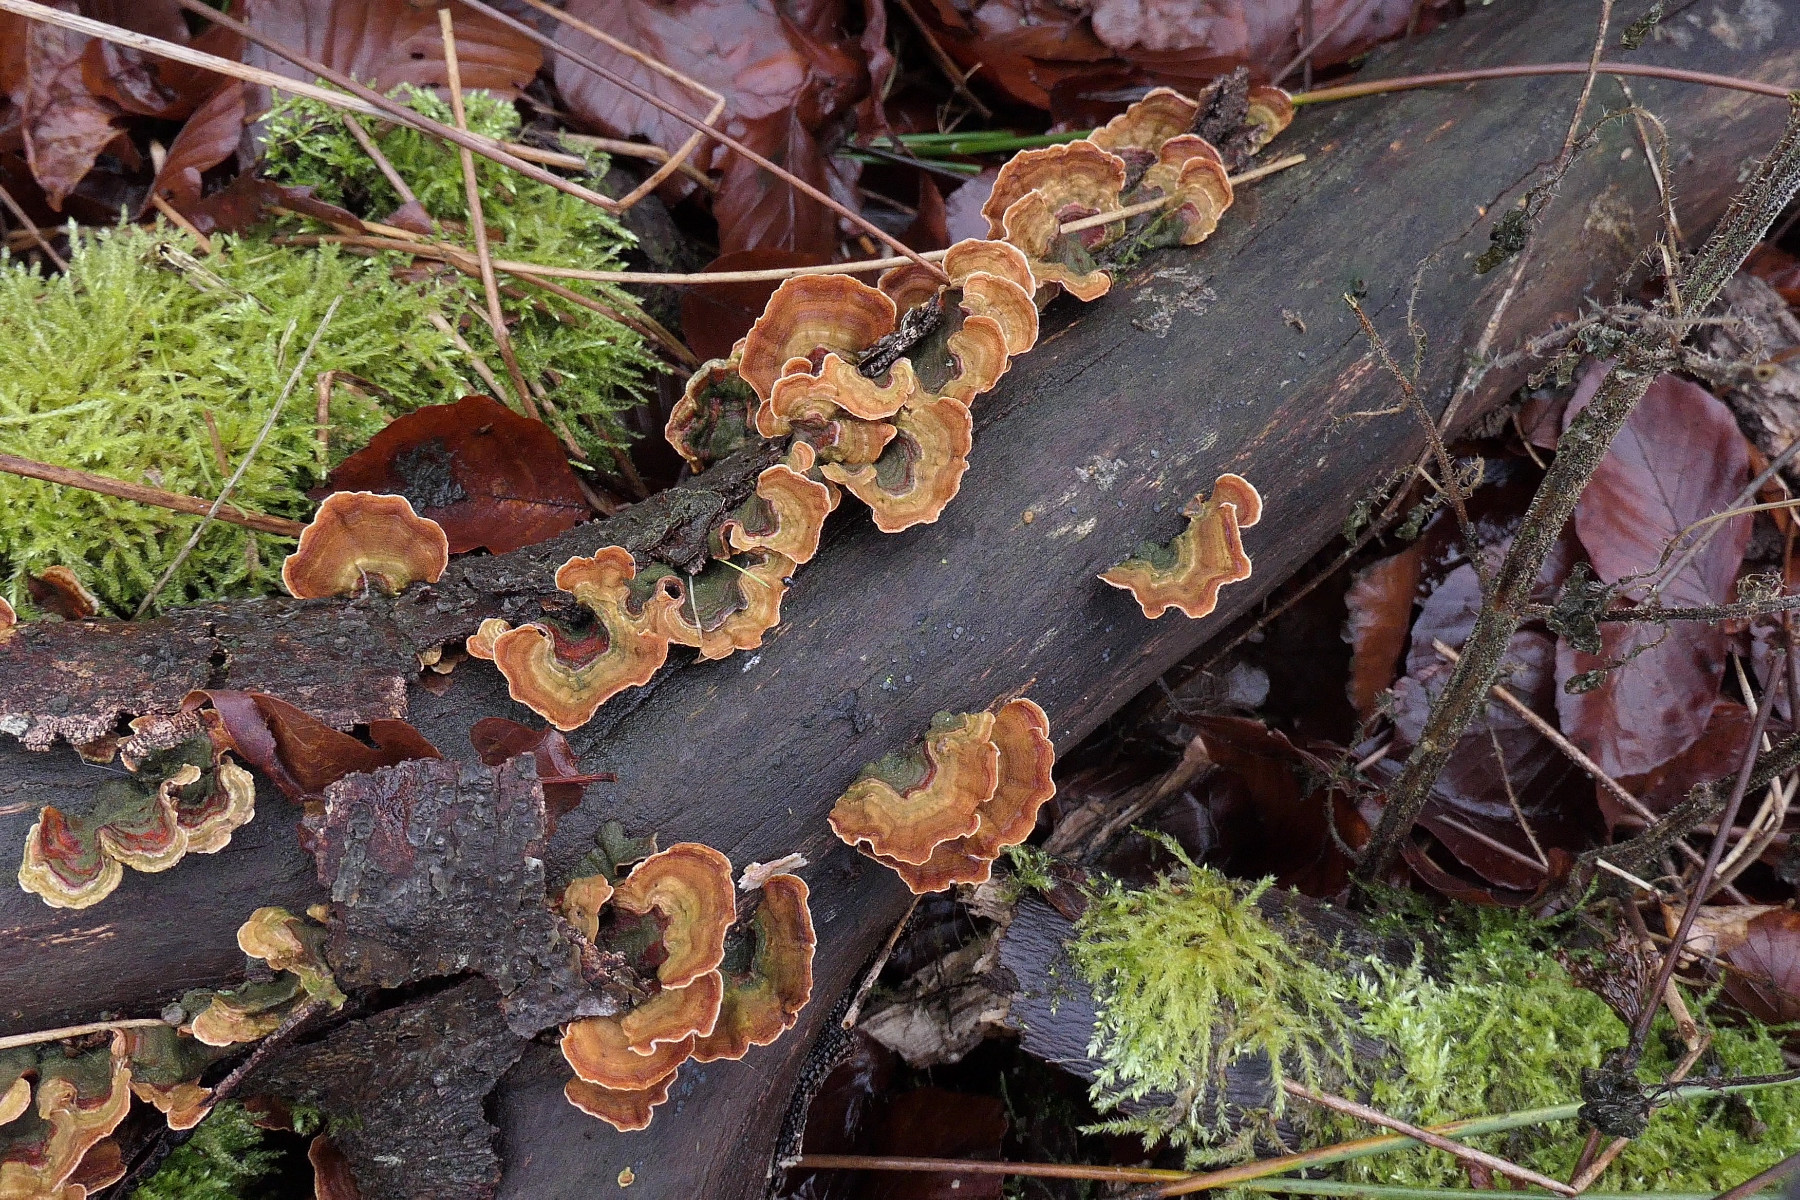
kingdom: Fungi
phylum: Basidiomycota
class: Agaricomycetes
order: Russulales
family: Stereaceae
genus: Stereum
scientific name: Stereum subtomentosum
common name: smuk lædersvamp
